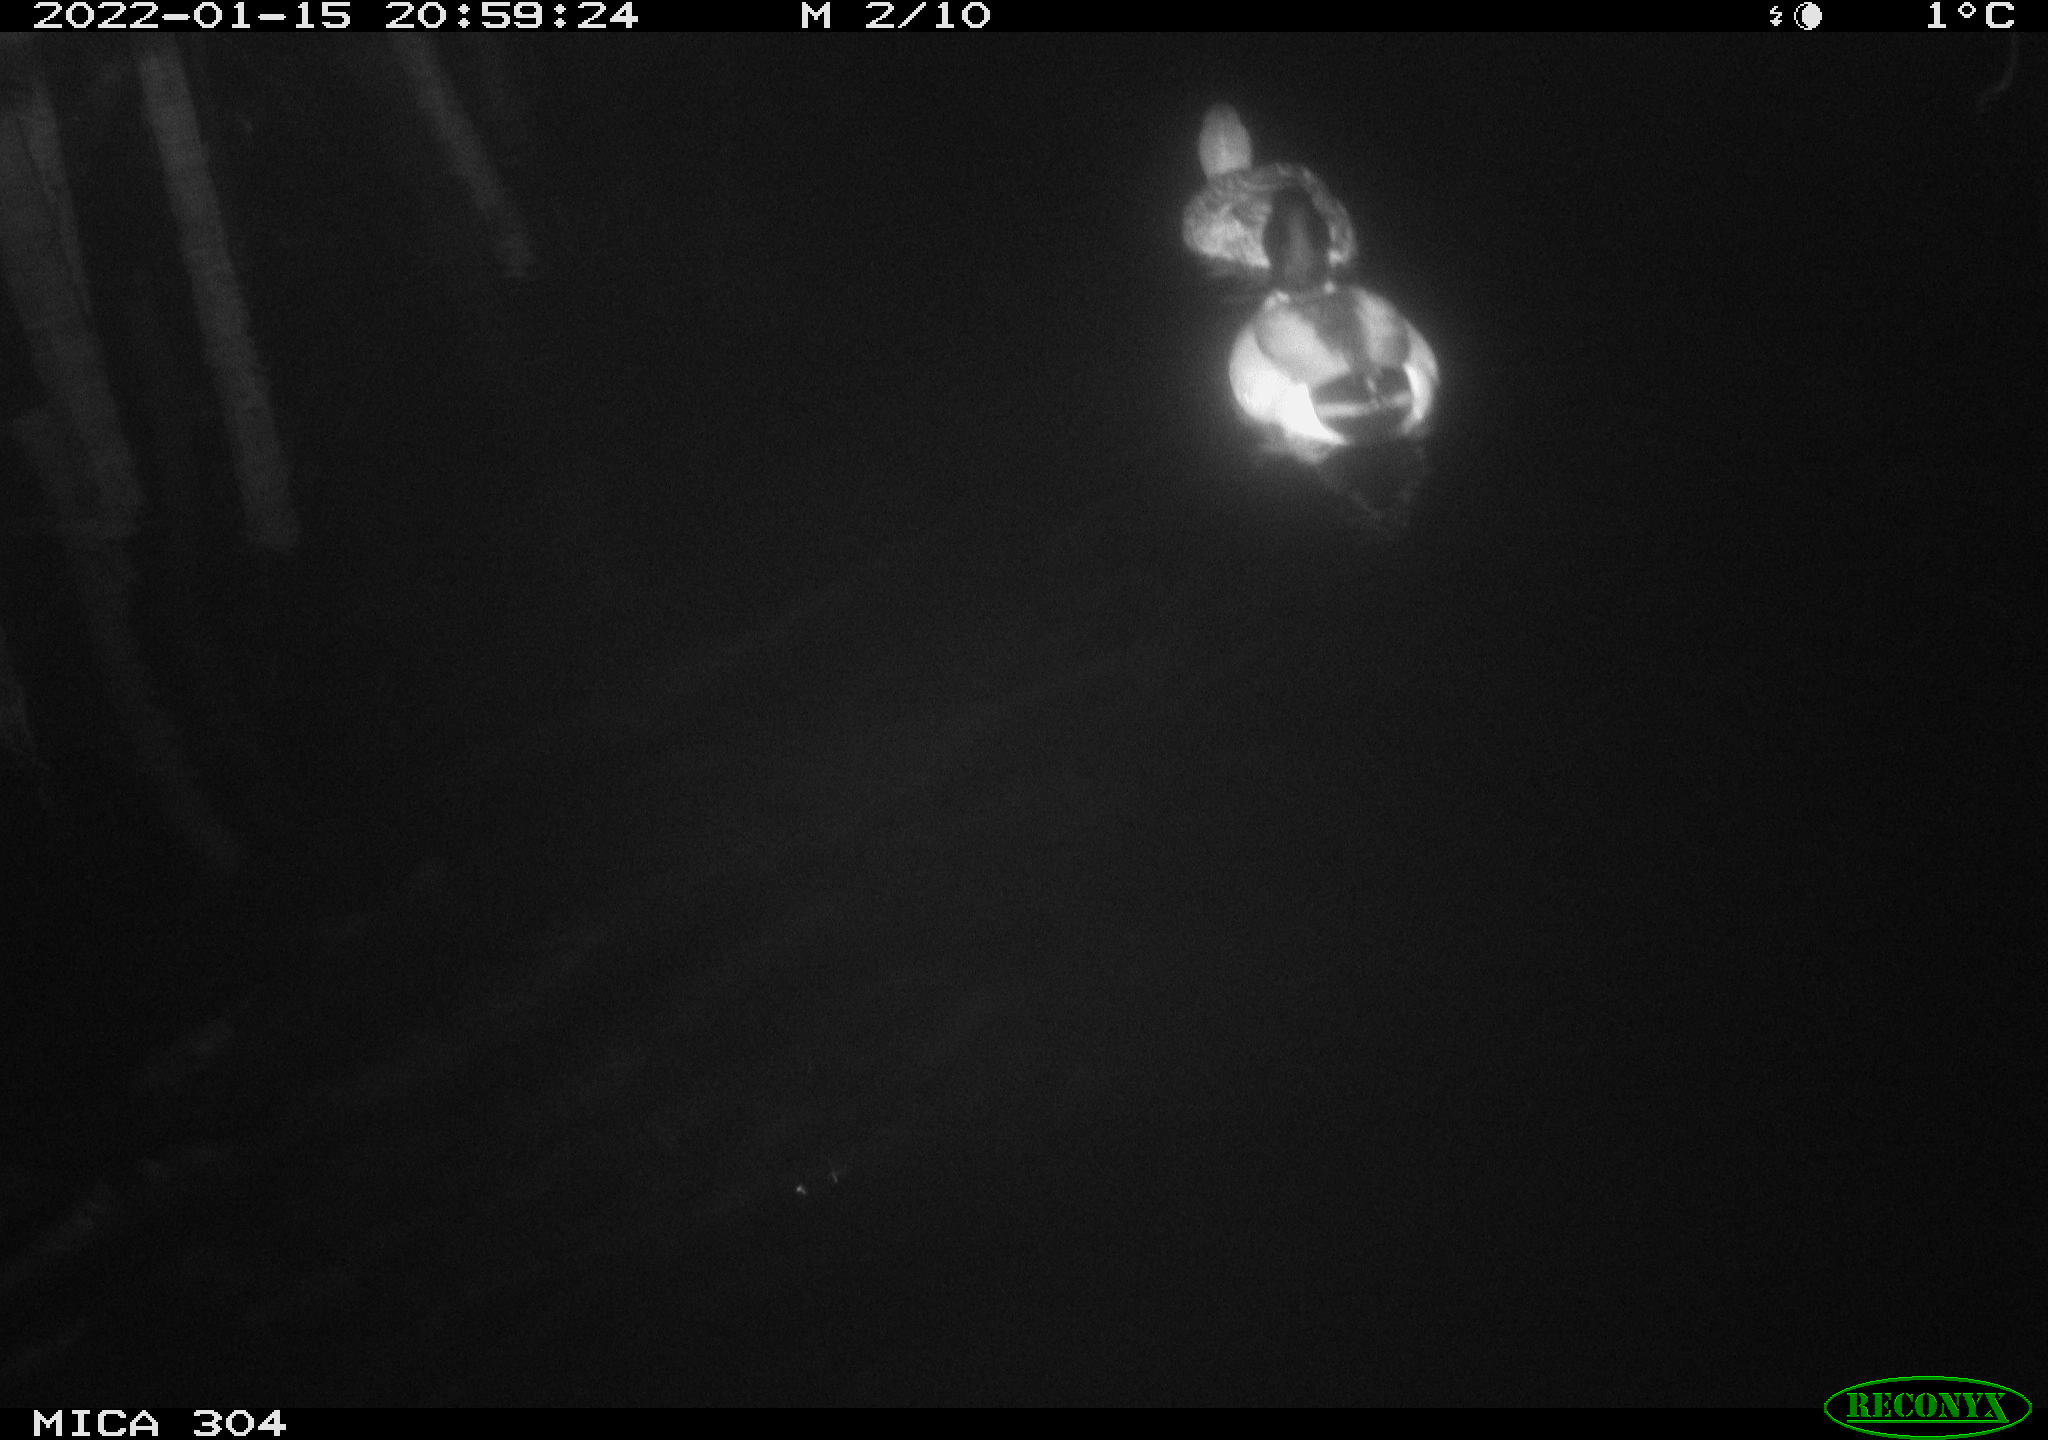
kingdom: Animalia
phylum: Chordata
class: Aves
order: Anseriformes
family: Anatidae
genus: Anas
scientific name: Anas
